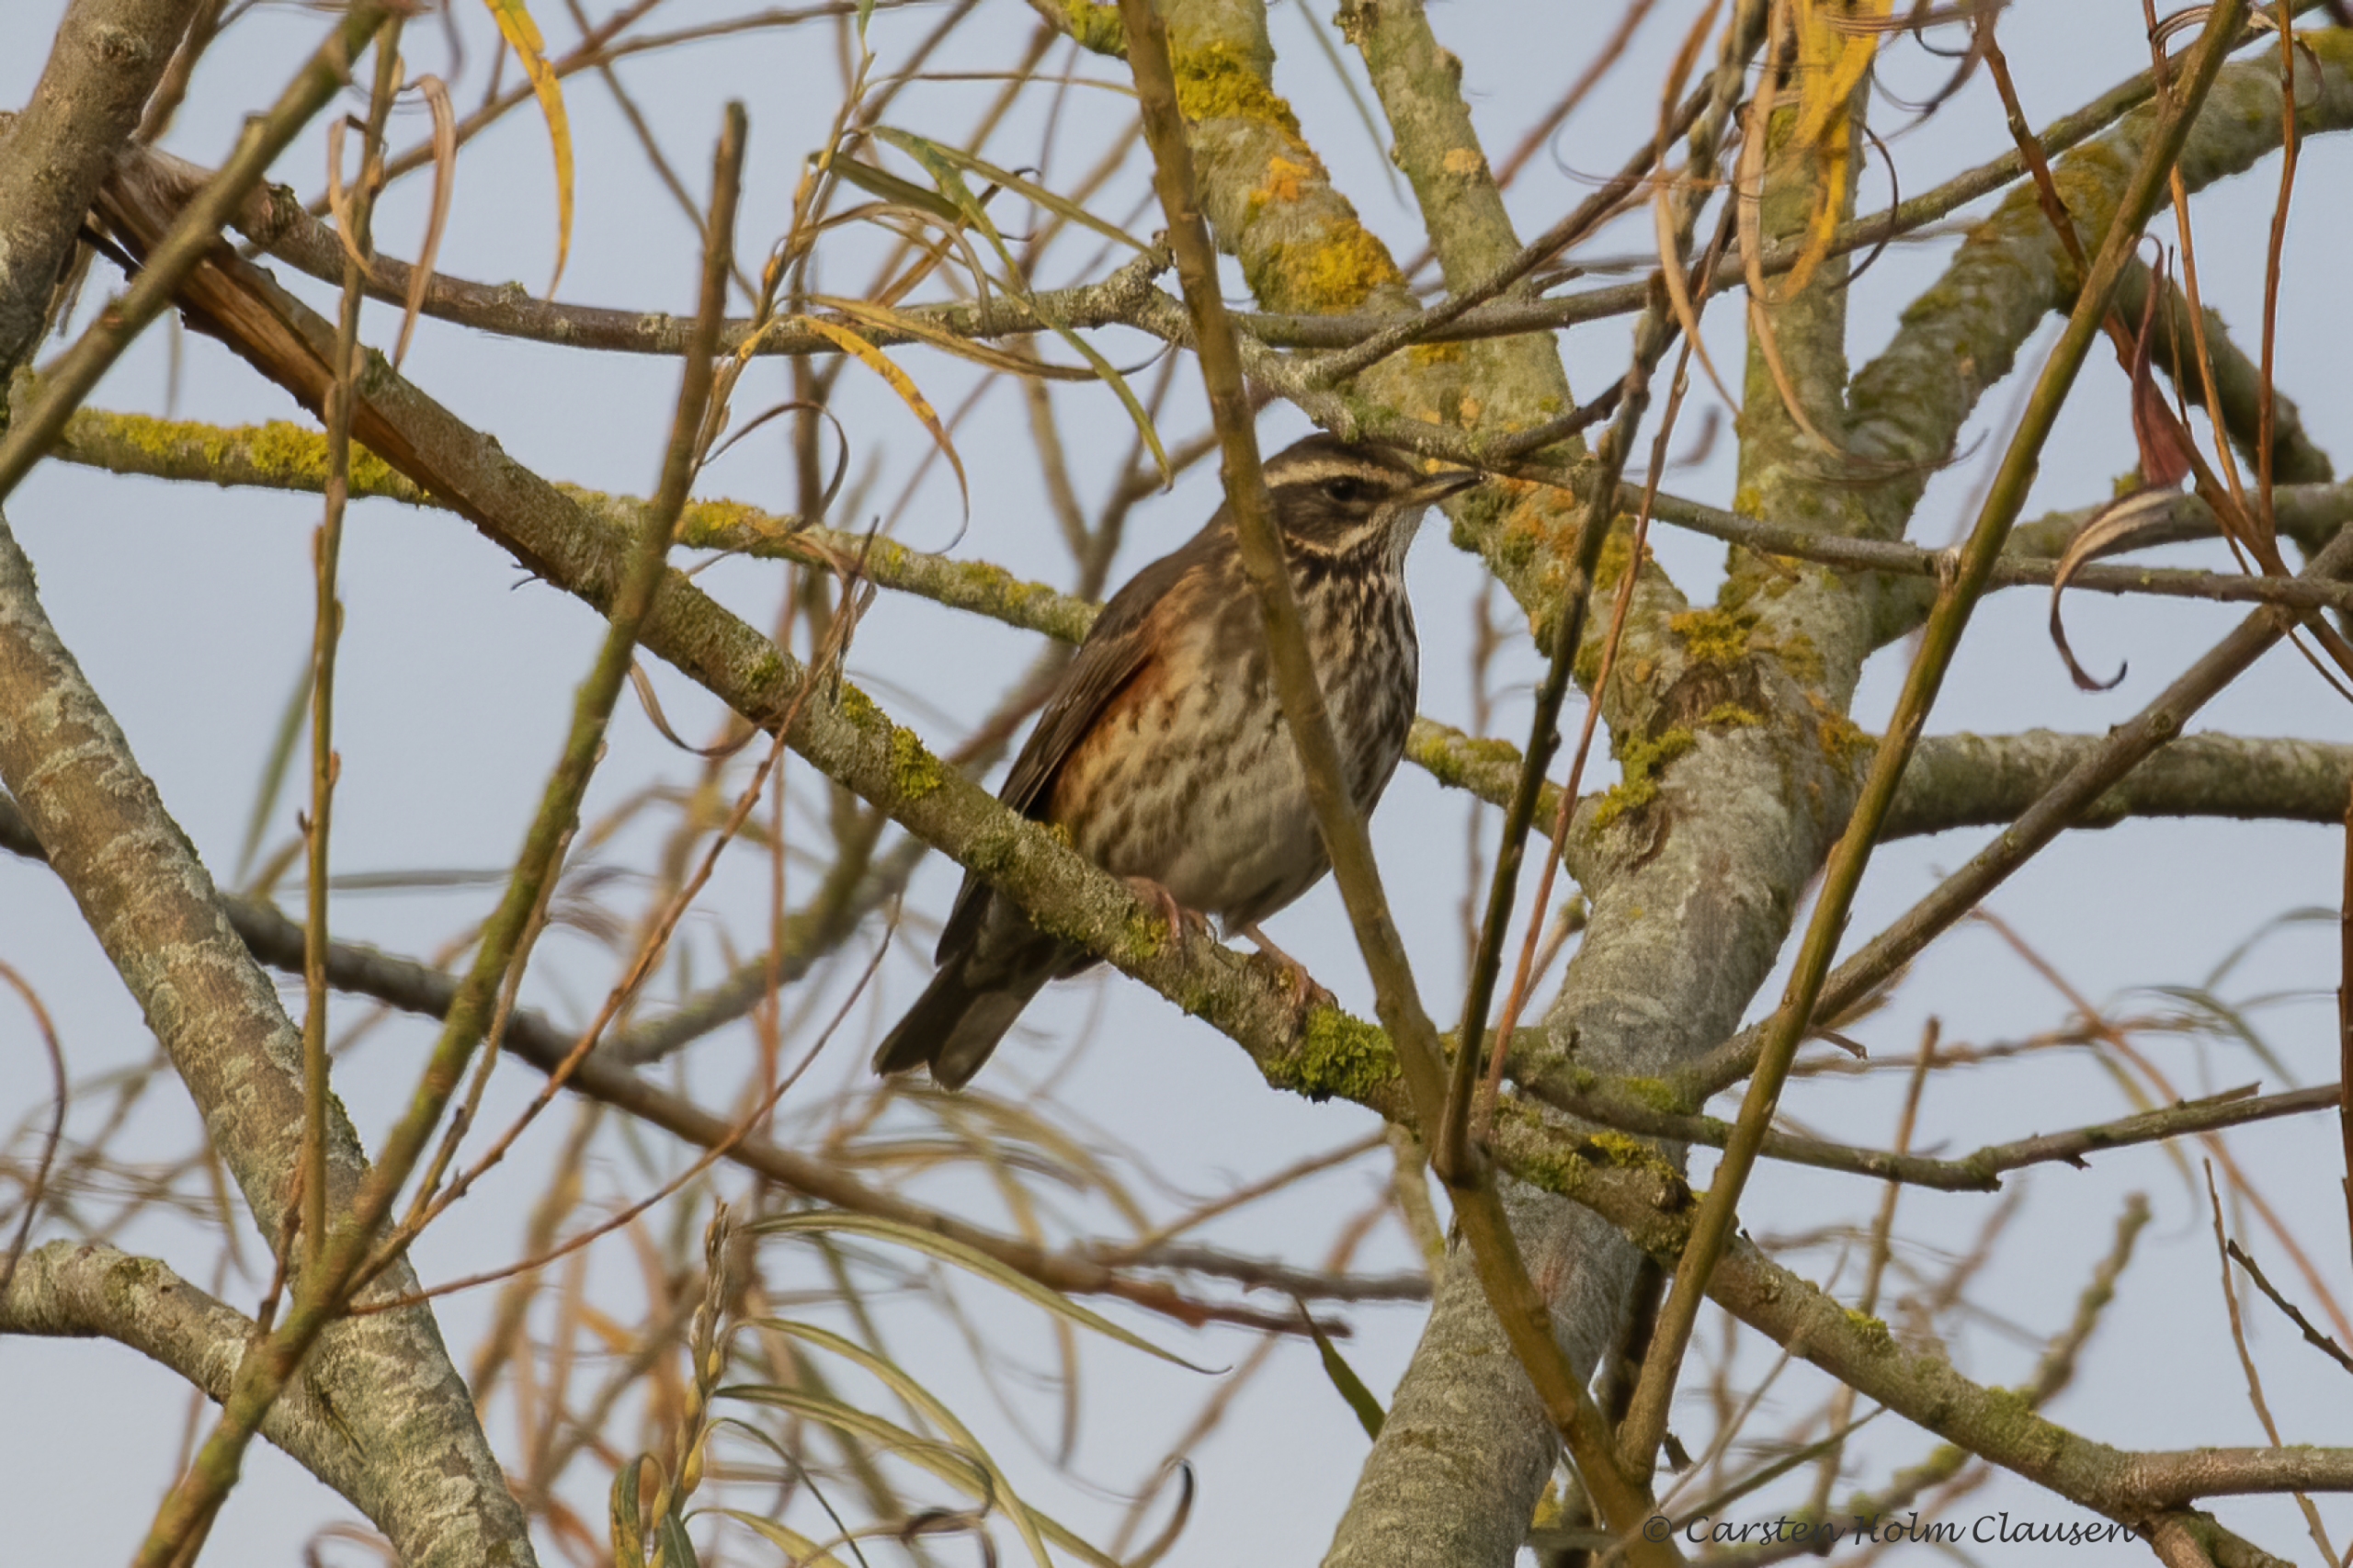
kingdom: Animalia
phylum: Chordata
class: Aves
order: Passeriformes
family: Turdidae
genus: Turdus
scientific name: Turdus iliacus
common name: Vindrossel
